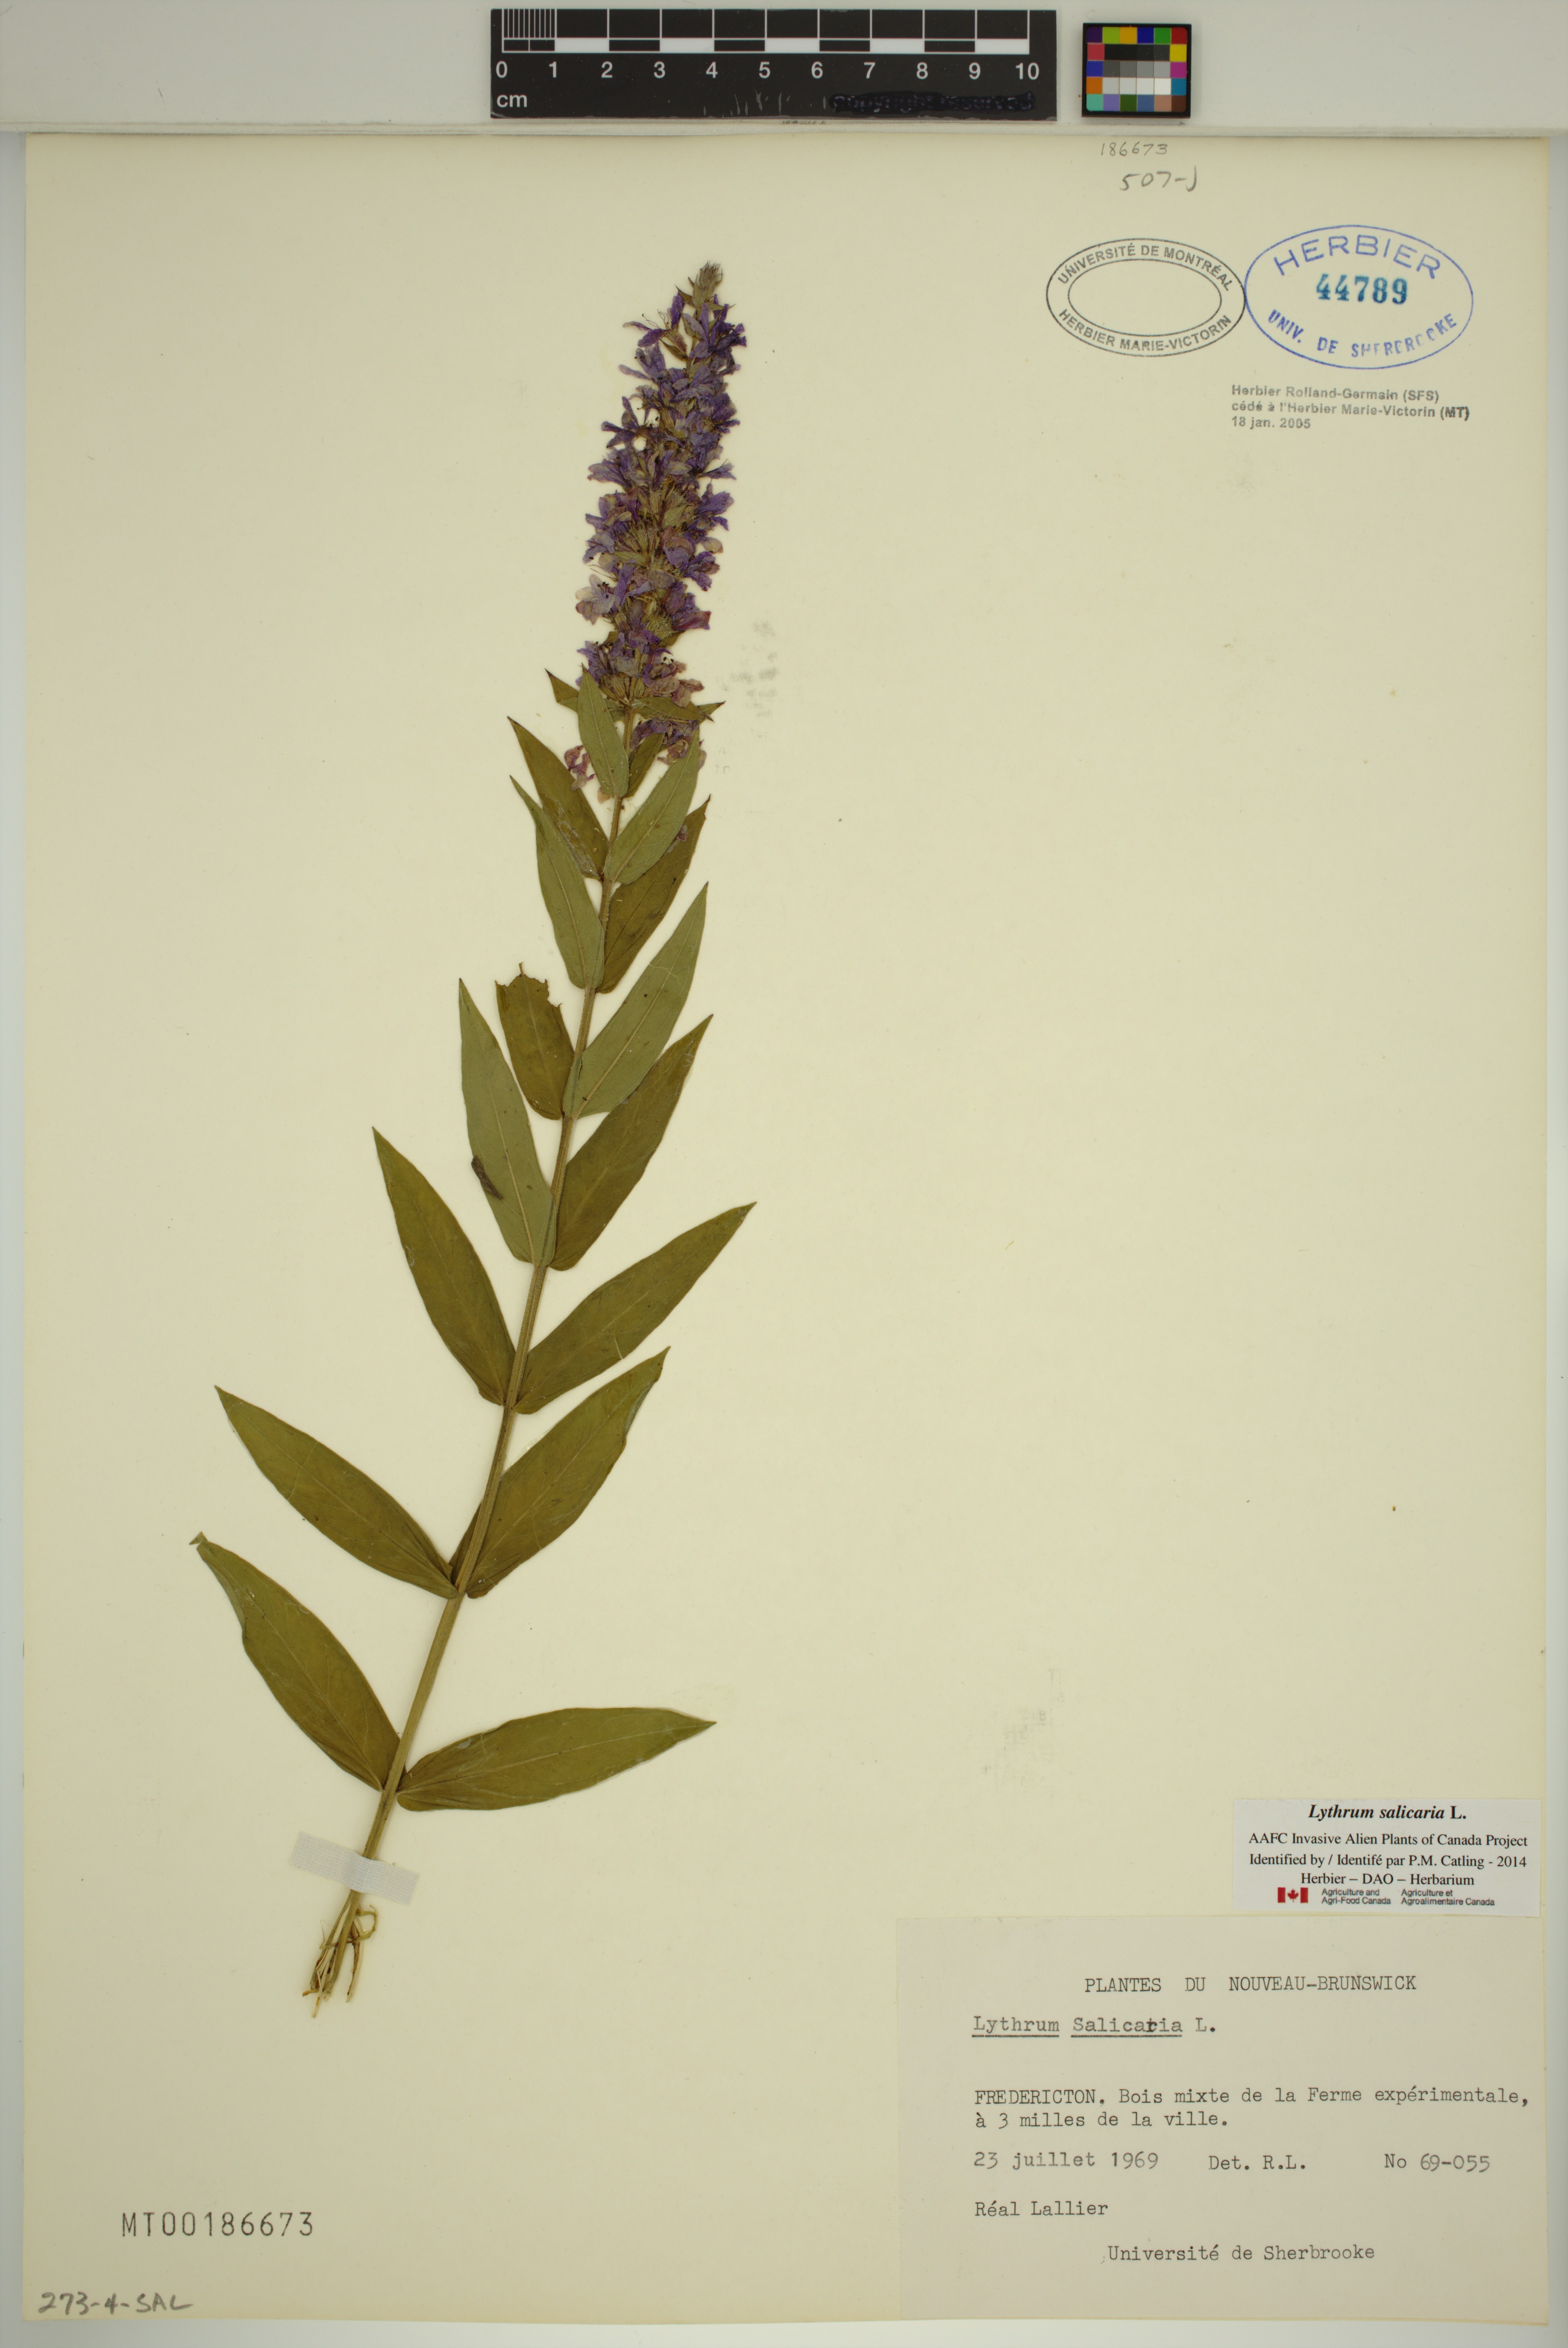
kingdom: Plantae
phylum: Tracheophyta
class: Magnoliopsida
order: Myrtales
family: Lythraceae
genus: Lythrum
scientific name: Lythrum salicaria
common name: Purple loosestrife
